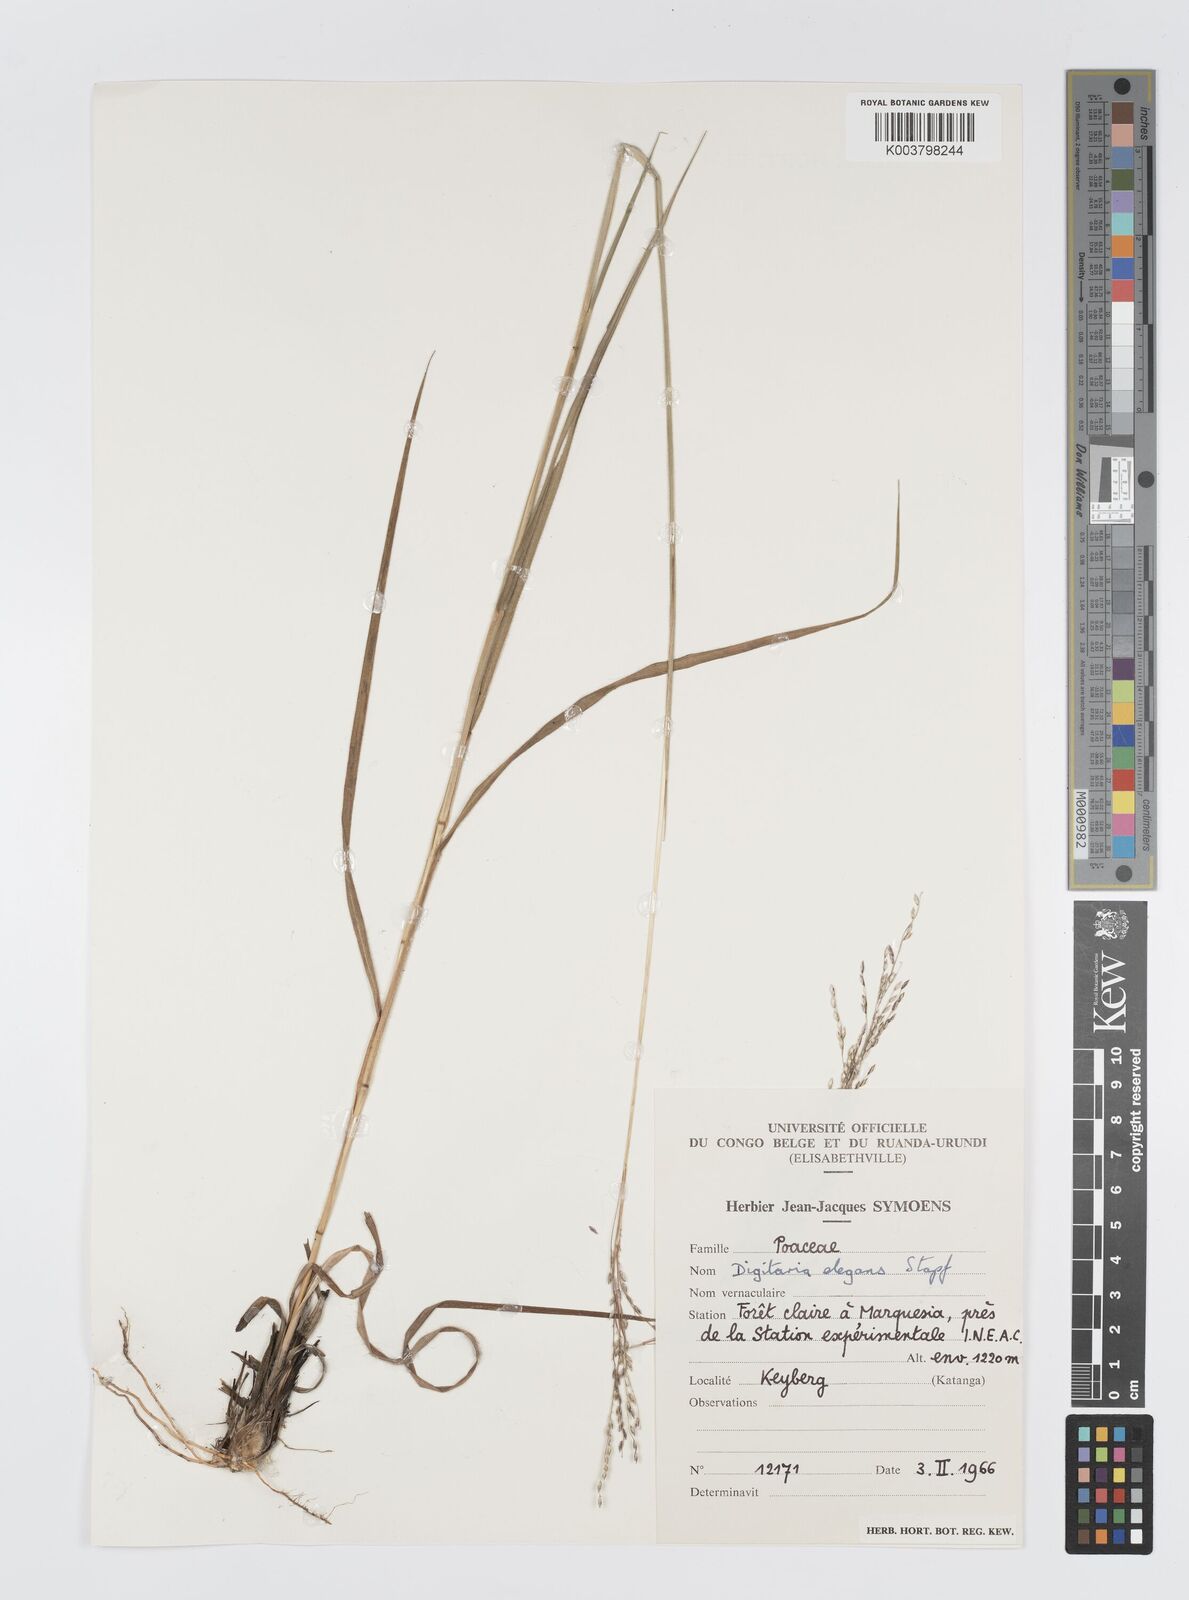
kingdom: Plantae
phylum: Tracheophyta
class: Liliopsida
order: Poales
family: Poaceae
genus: Digitaria
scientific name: Digitaria flaccida
